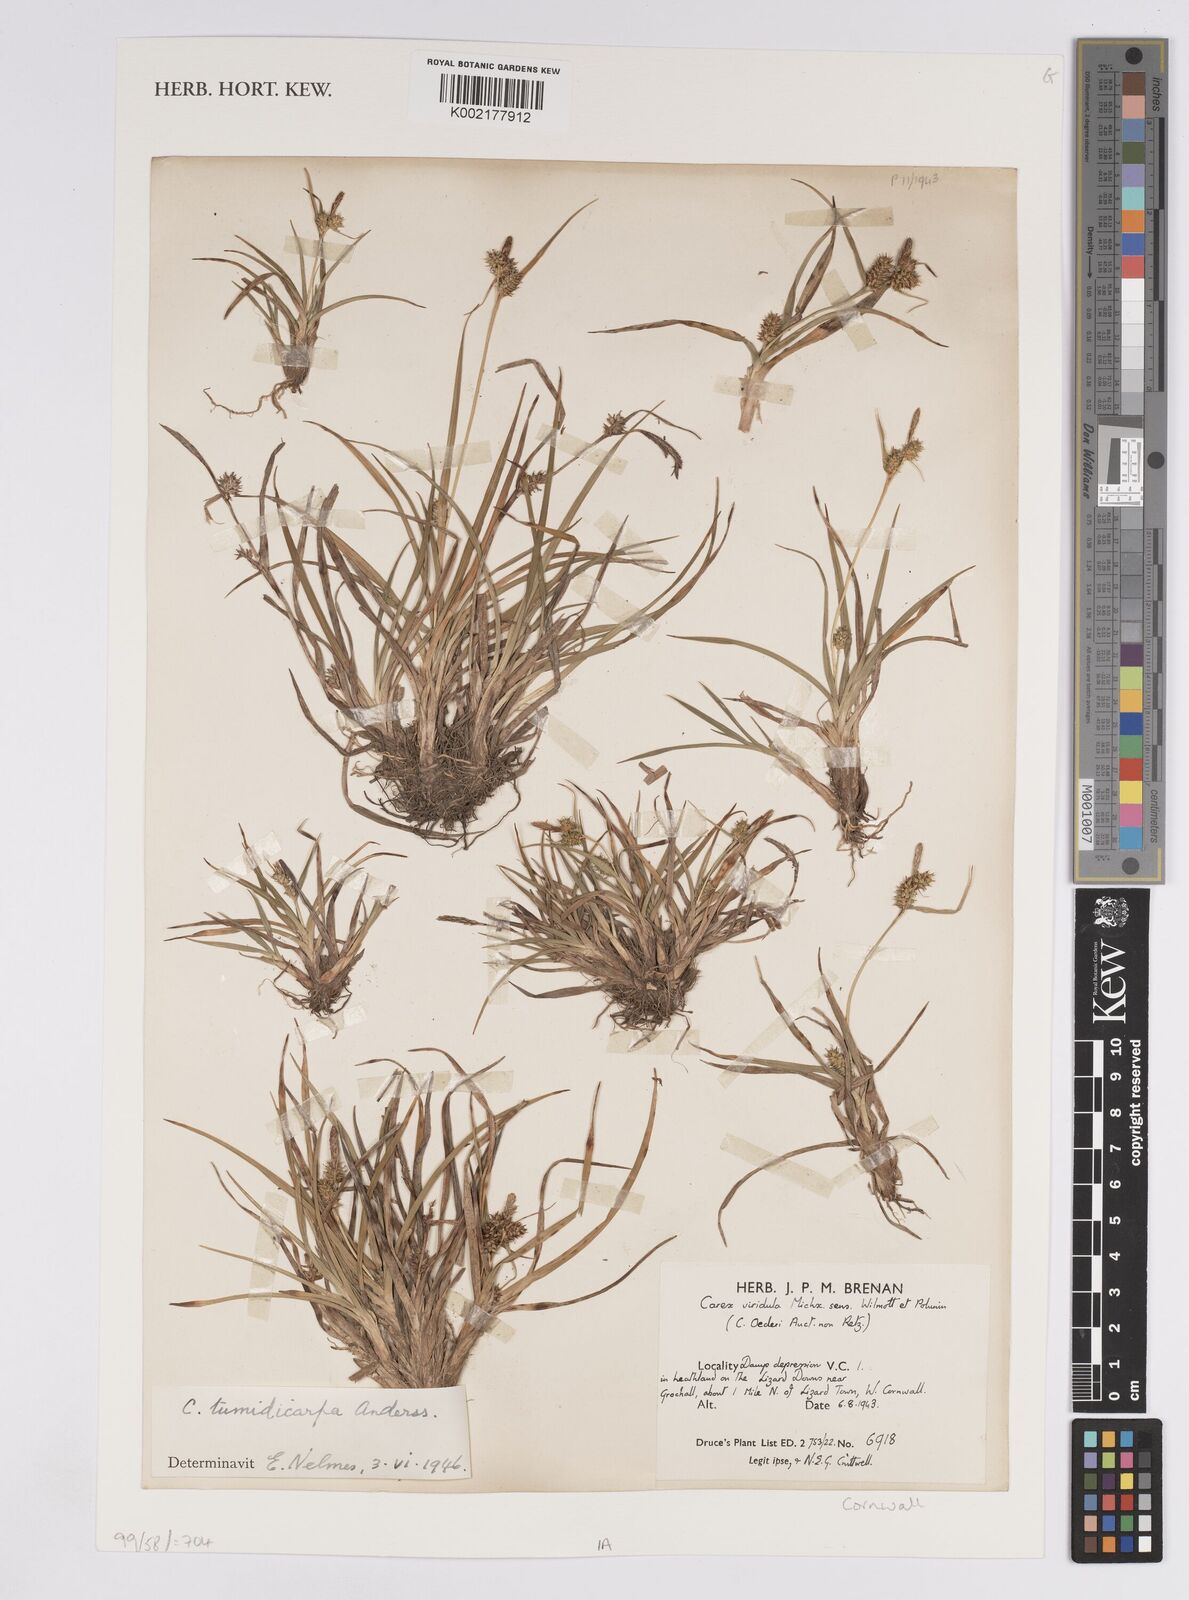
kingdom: Plantae
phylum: Tracheophyta
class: Liliopsida
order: Poales
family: Cyperaceae
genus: Carex
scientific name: Carex demissa
